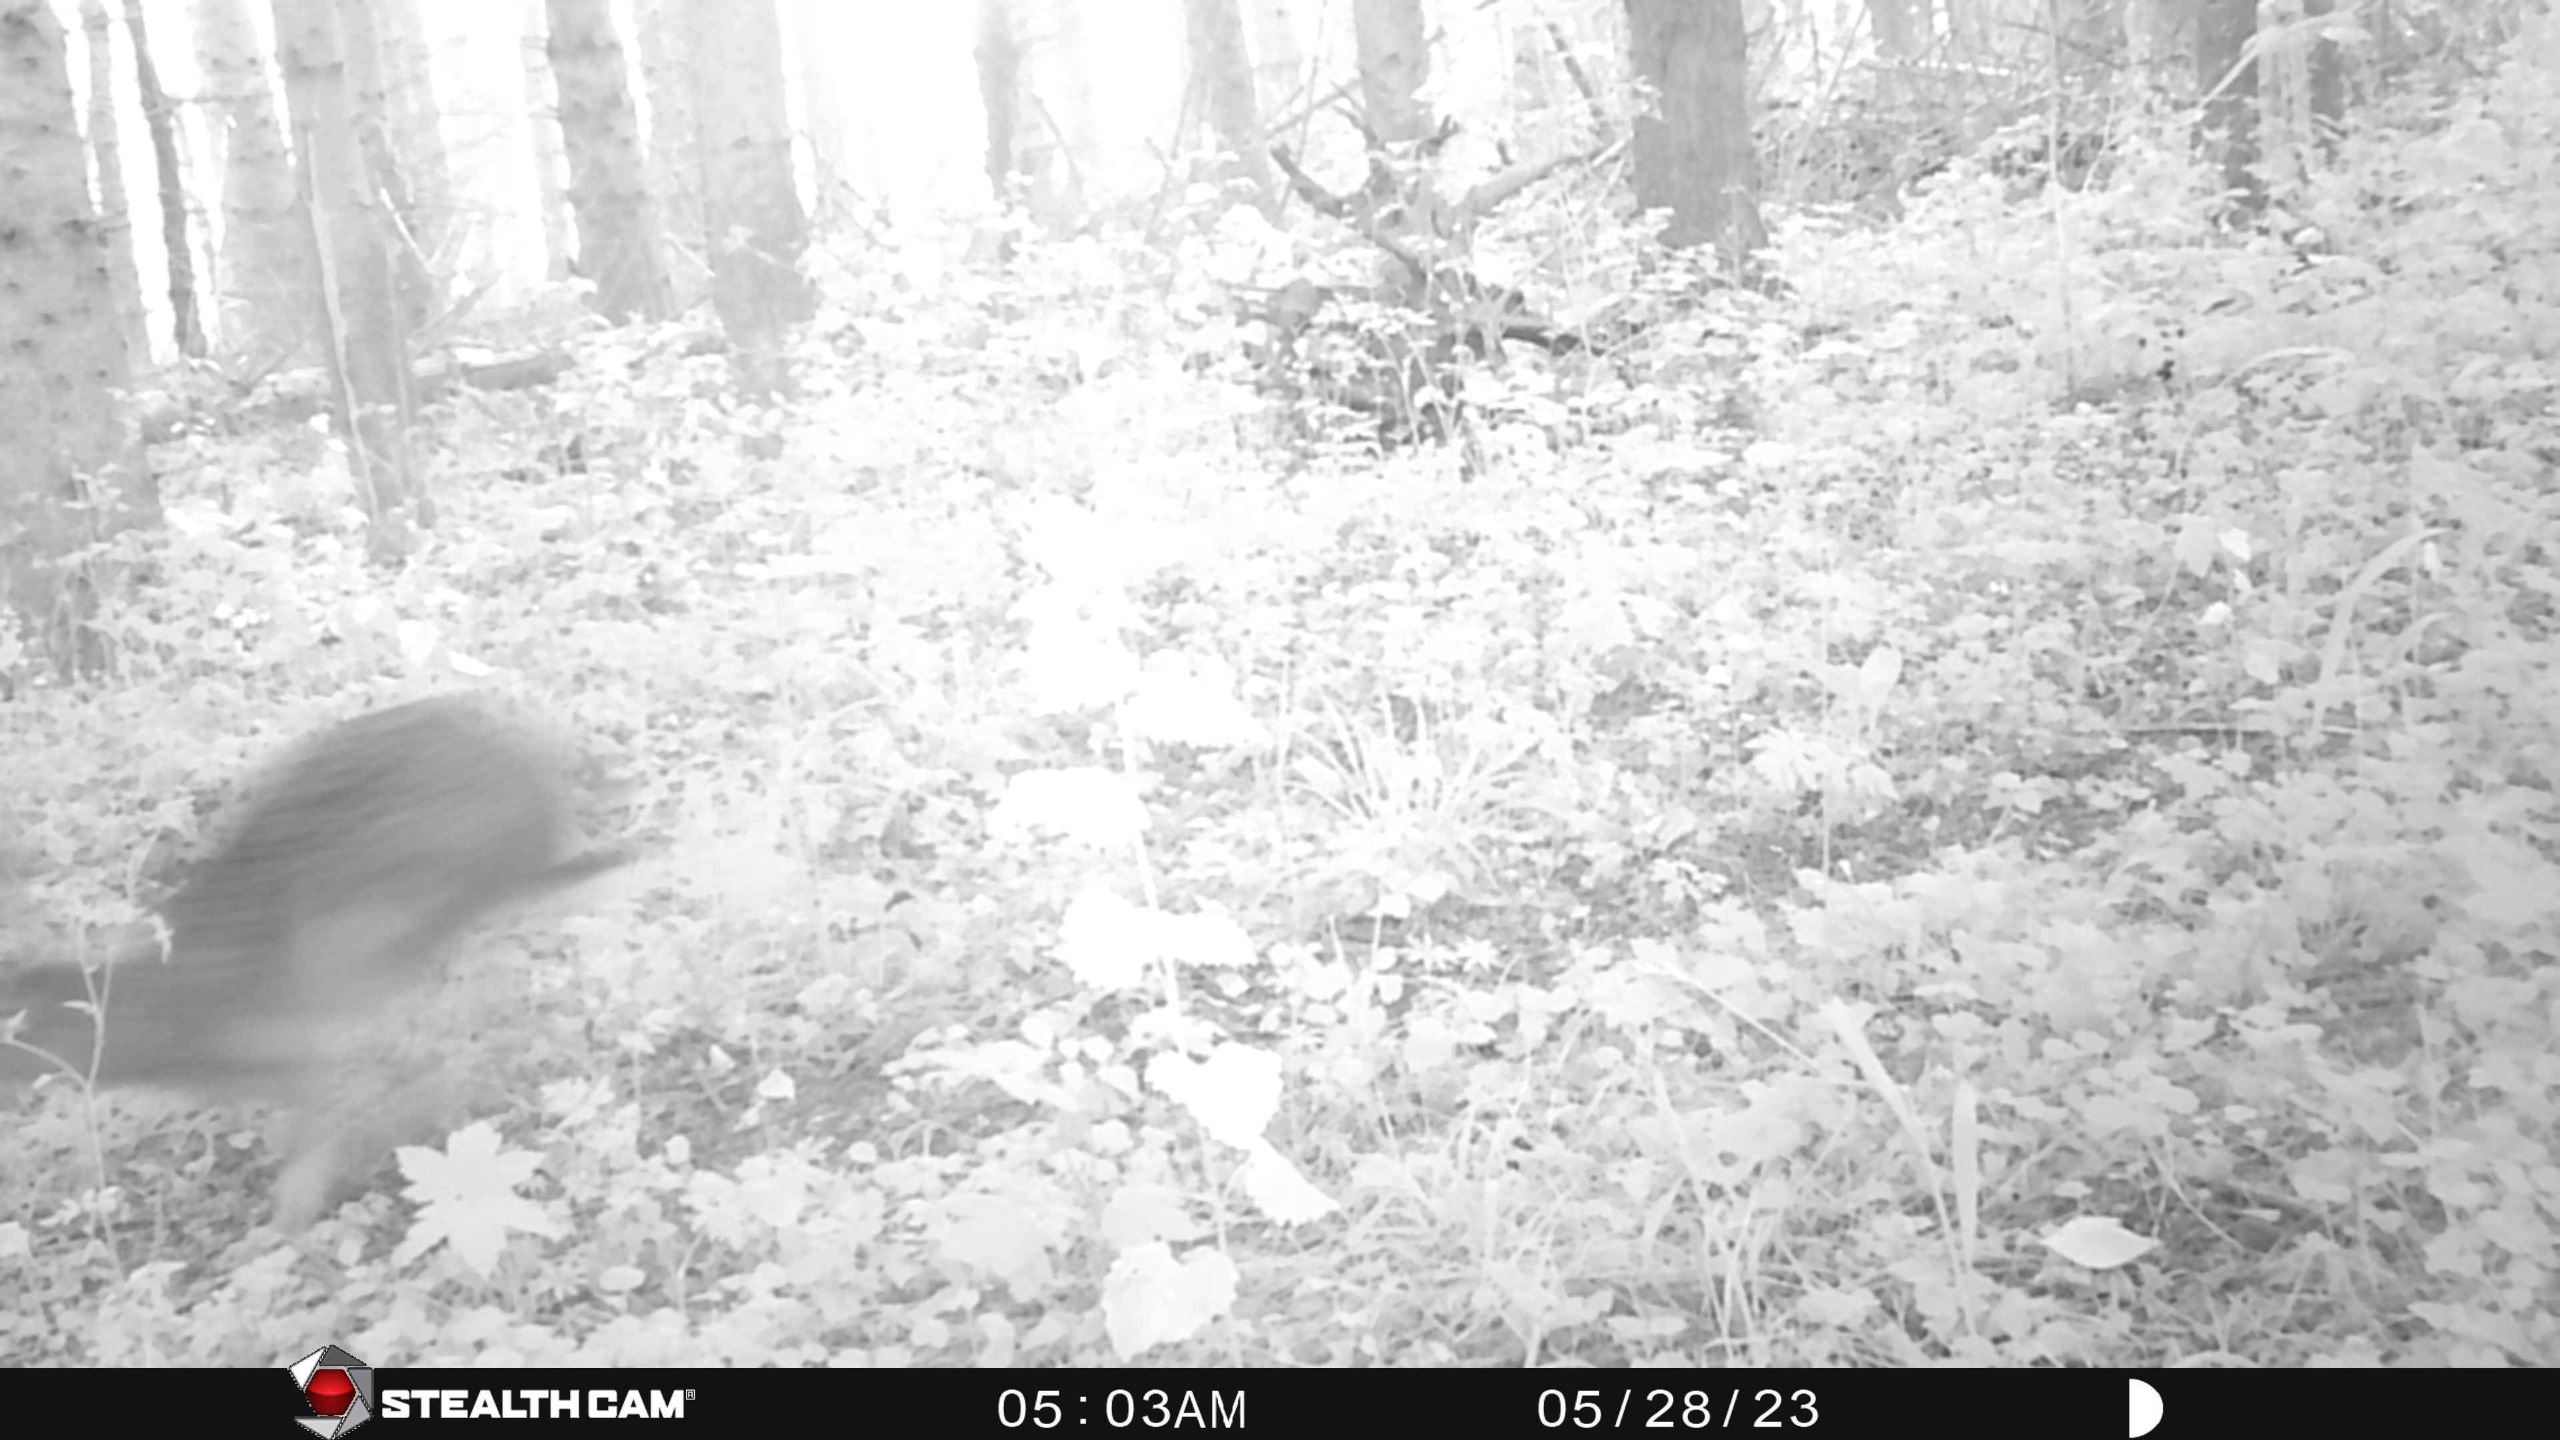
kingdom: Animalia
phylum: Chordata
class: Mammalia
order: Lagomorpha
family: Leporidae
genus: Lepus
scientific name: Lepus europaeus
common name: Hare
